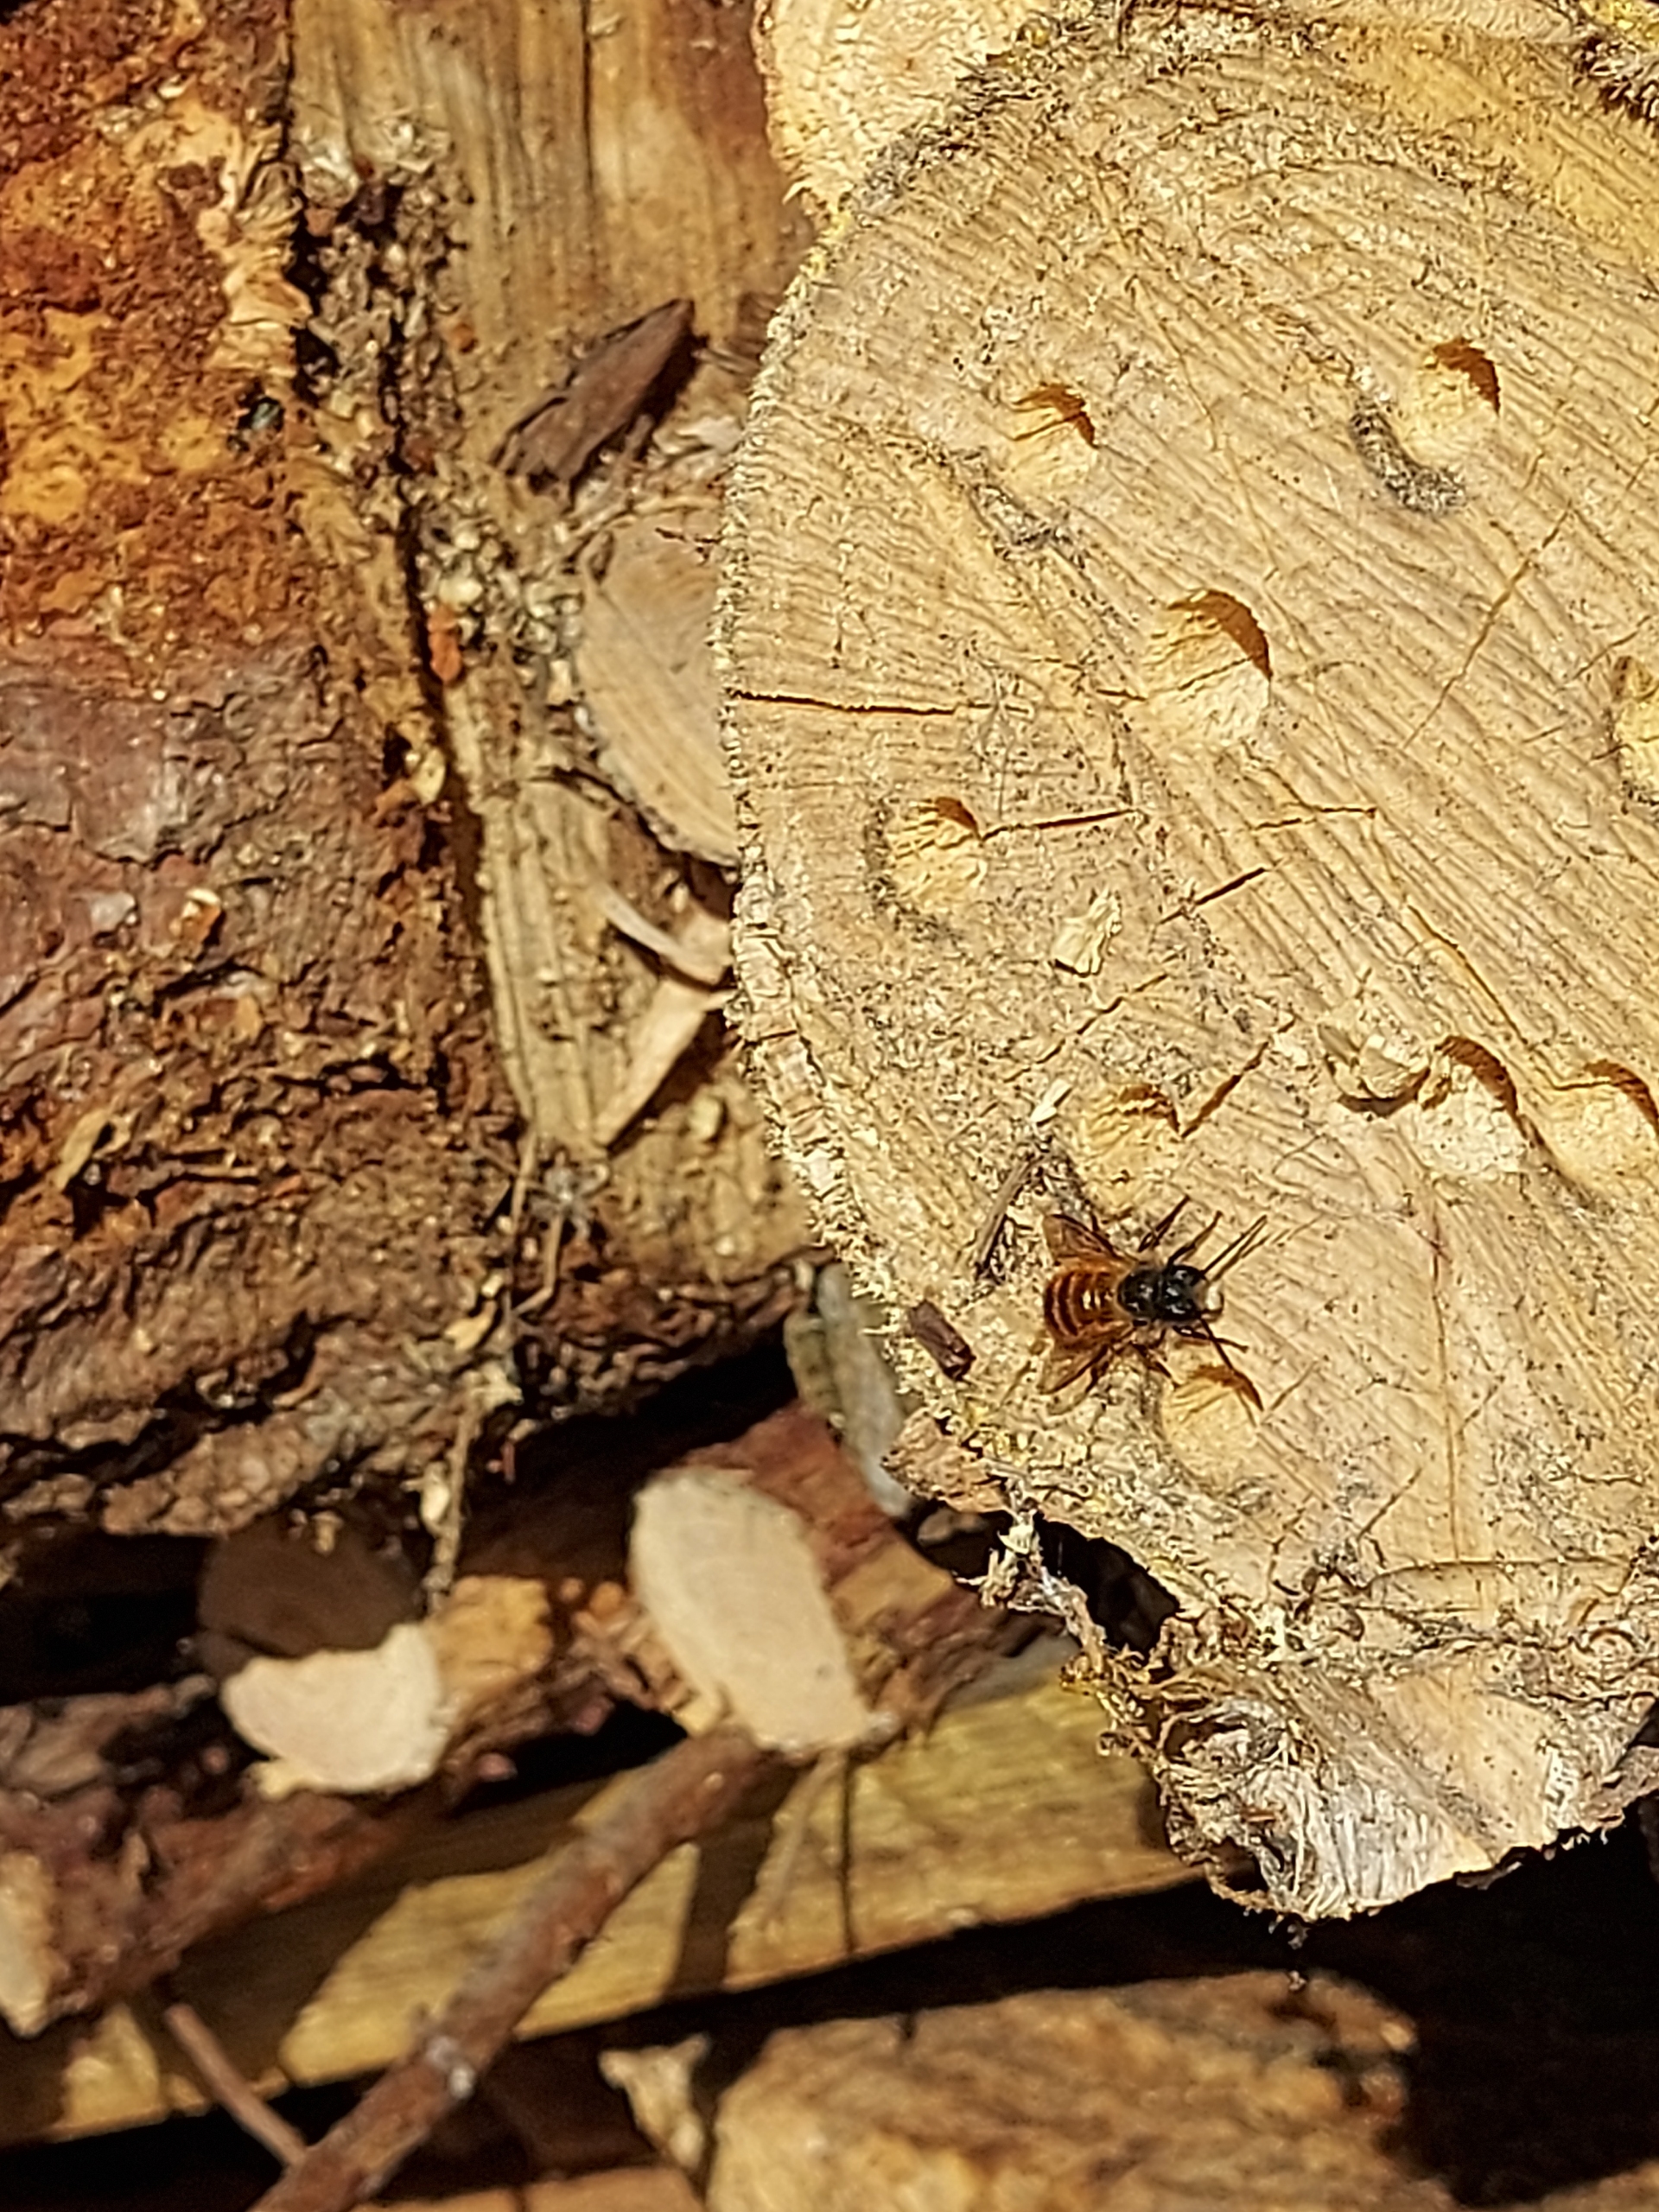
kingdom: Animalia
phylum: Arthropoda
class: Insecta
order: Hymenoptera
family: Megachilidae
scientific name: Megachilidae
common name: Bugsamlerbier
